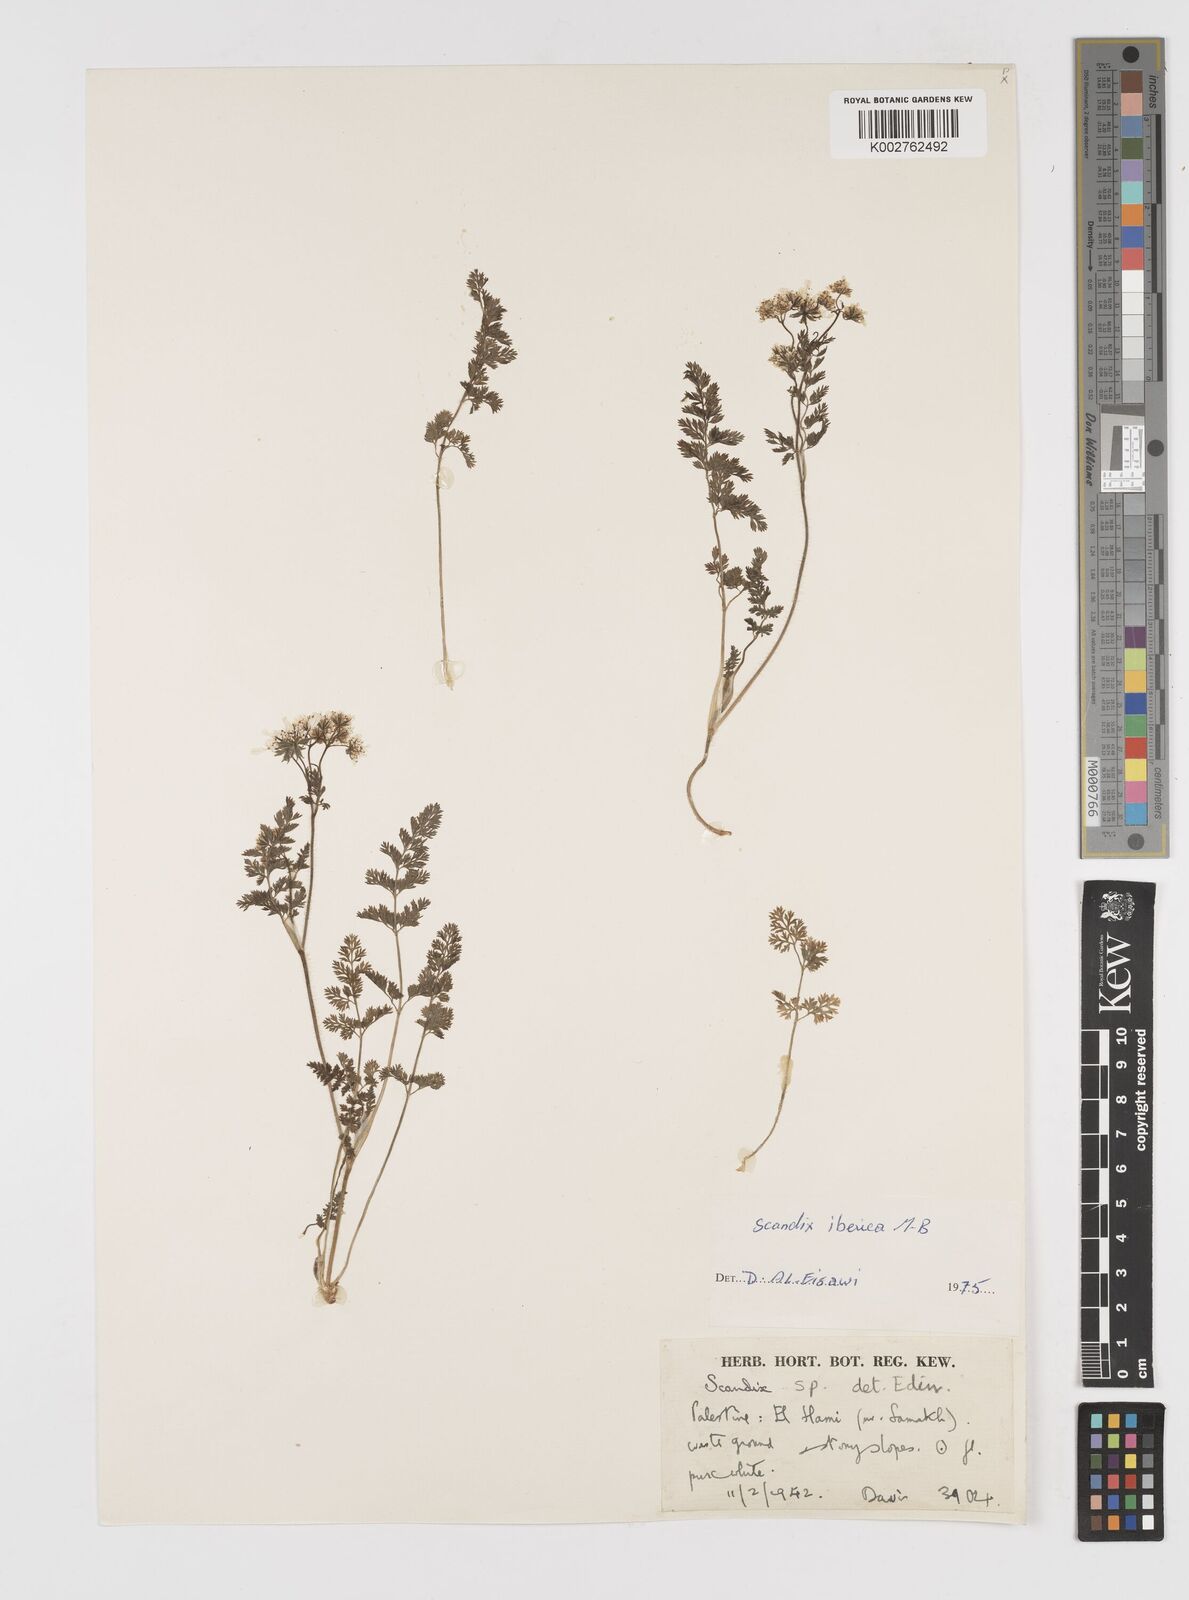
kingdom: Plantae
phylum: Tracheophyta
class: Magnoliopsida
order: Apiales
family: Apiaceae
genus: Scandix
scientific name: Scandix iberica
